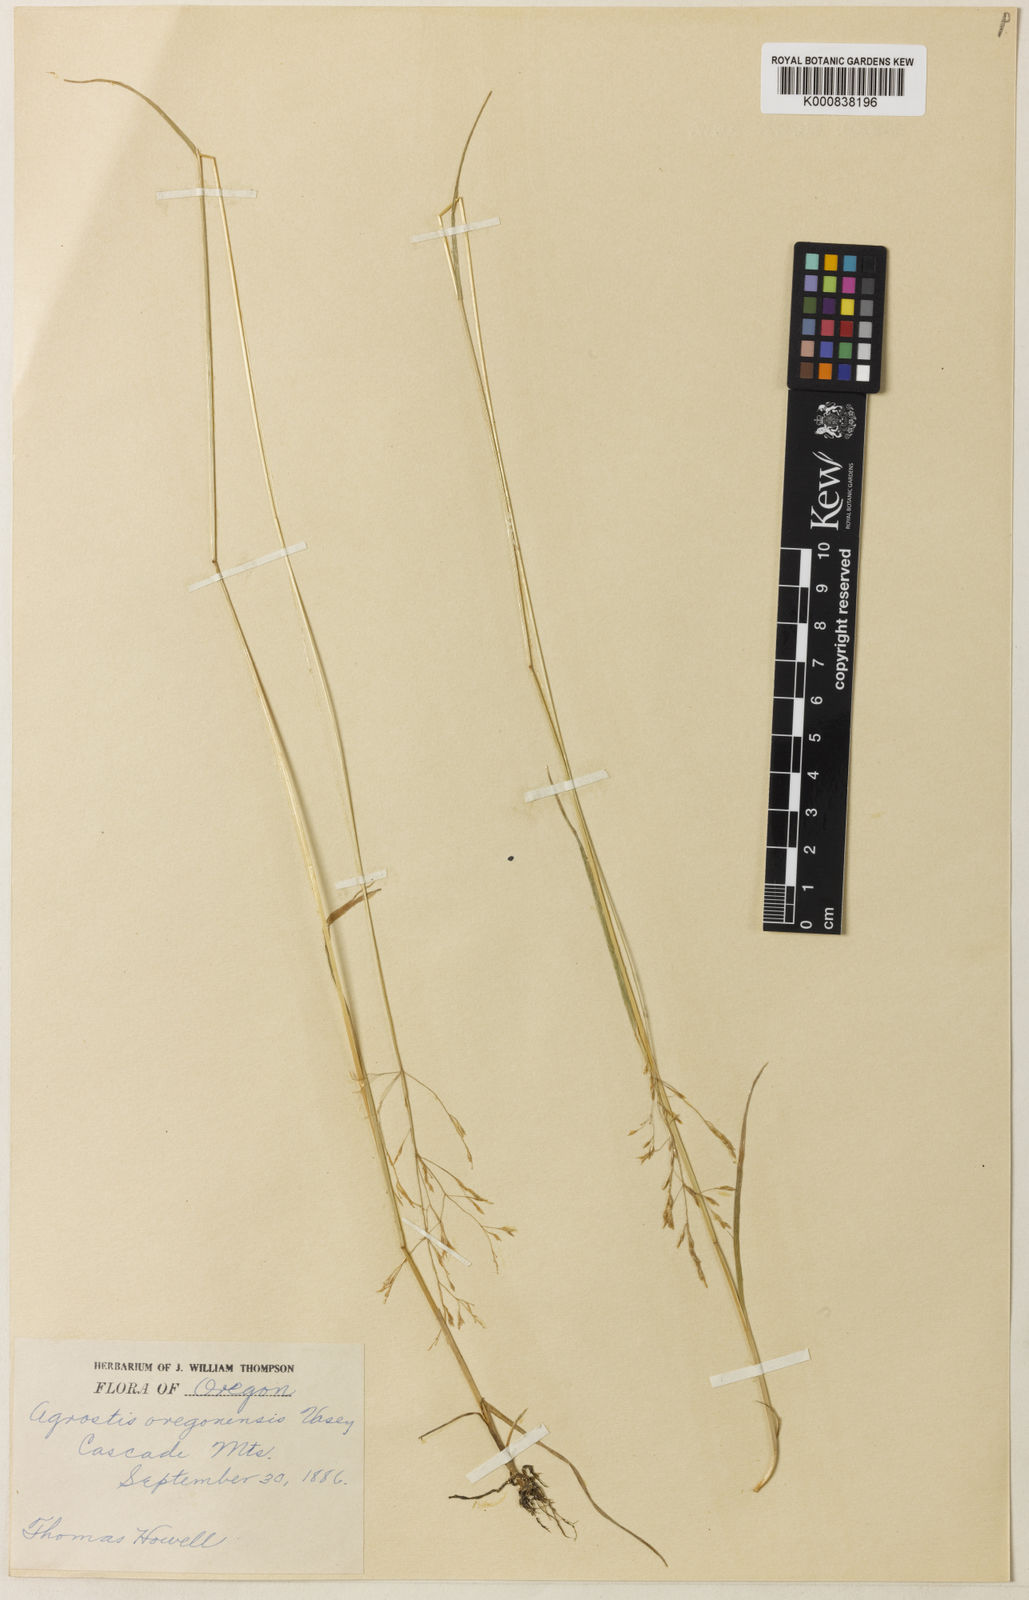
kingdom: Plantae
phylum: Tracheophyta
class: Liliopsida
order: Poales
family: Poaceae
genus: Agrostis
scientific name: Agrostis oregonensis
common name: Oregon bent
